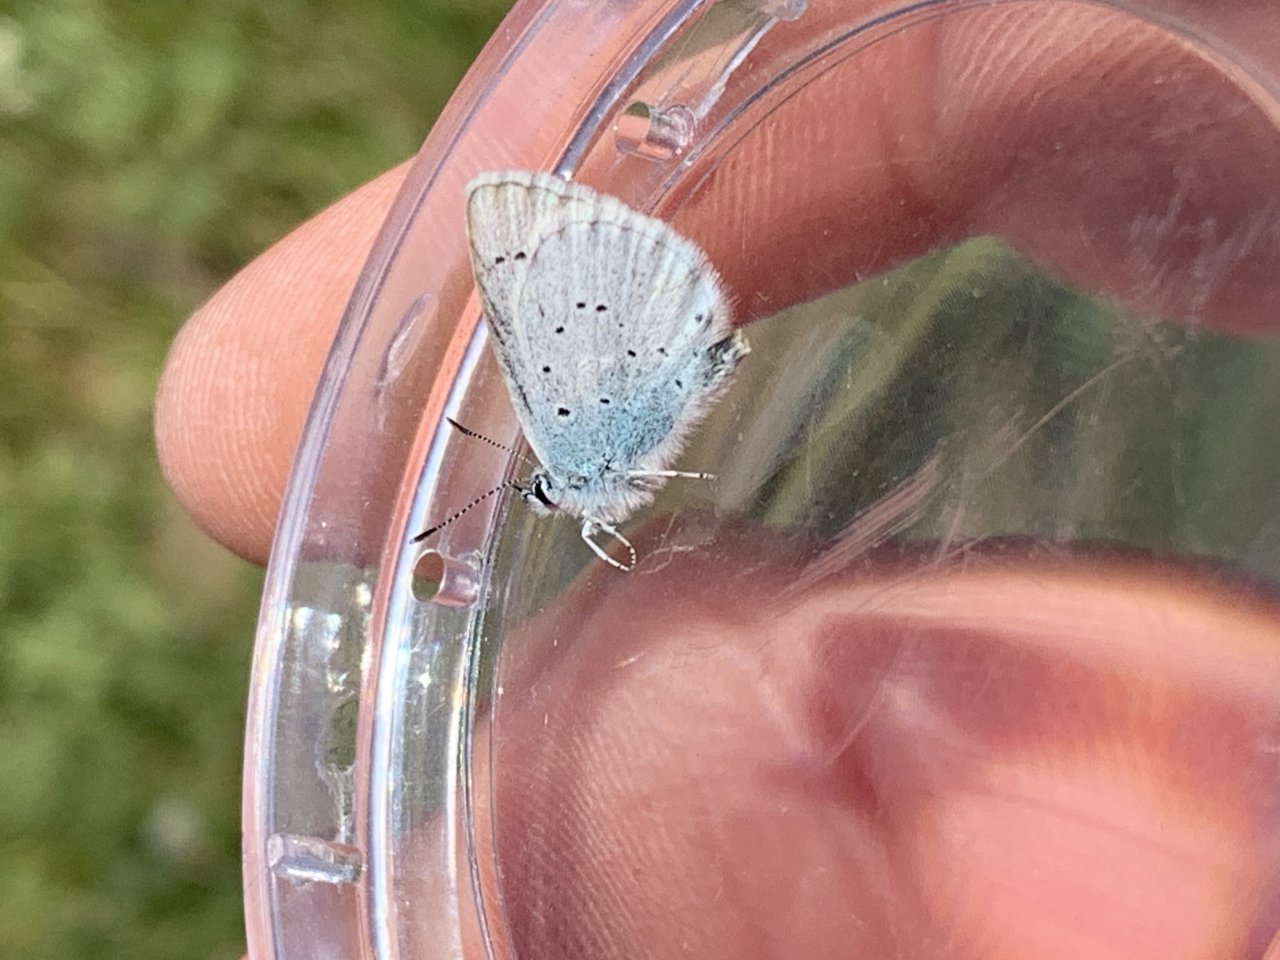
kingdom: Animalia
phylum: Arthropoda
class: Insecta
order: Lepidoptera
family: Lycaenidae
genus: Lycaeides
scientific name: Lycaeides anna
